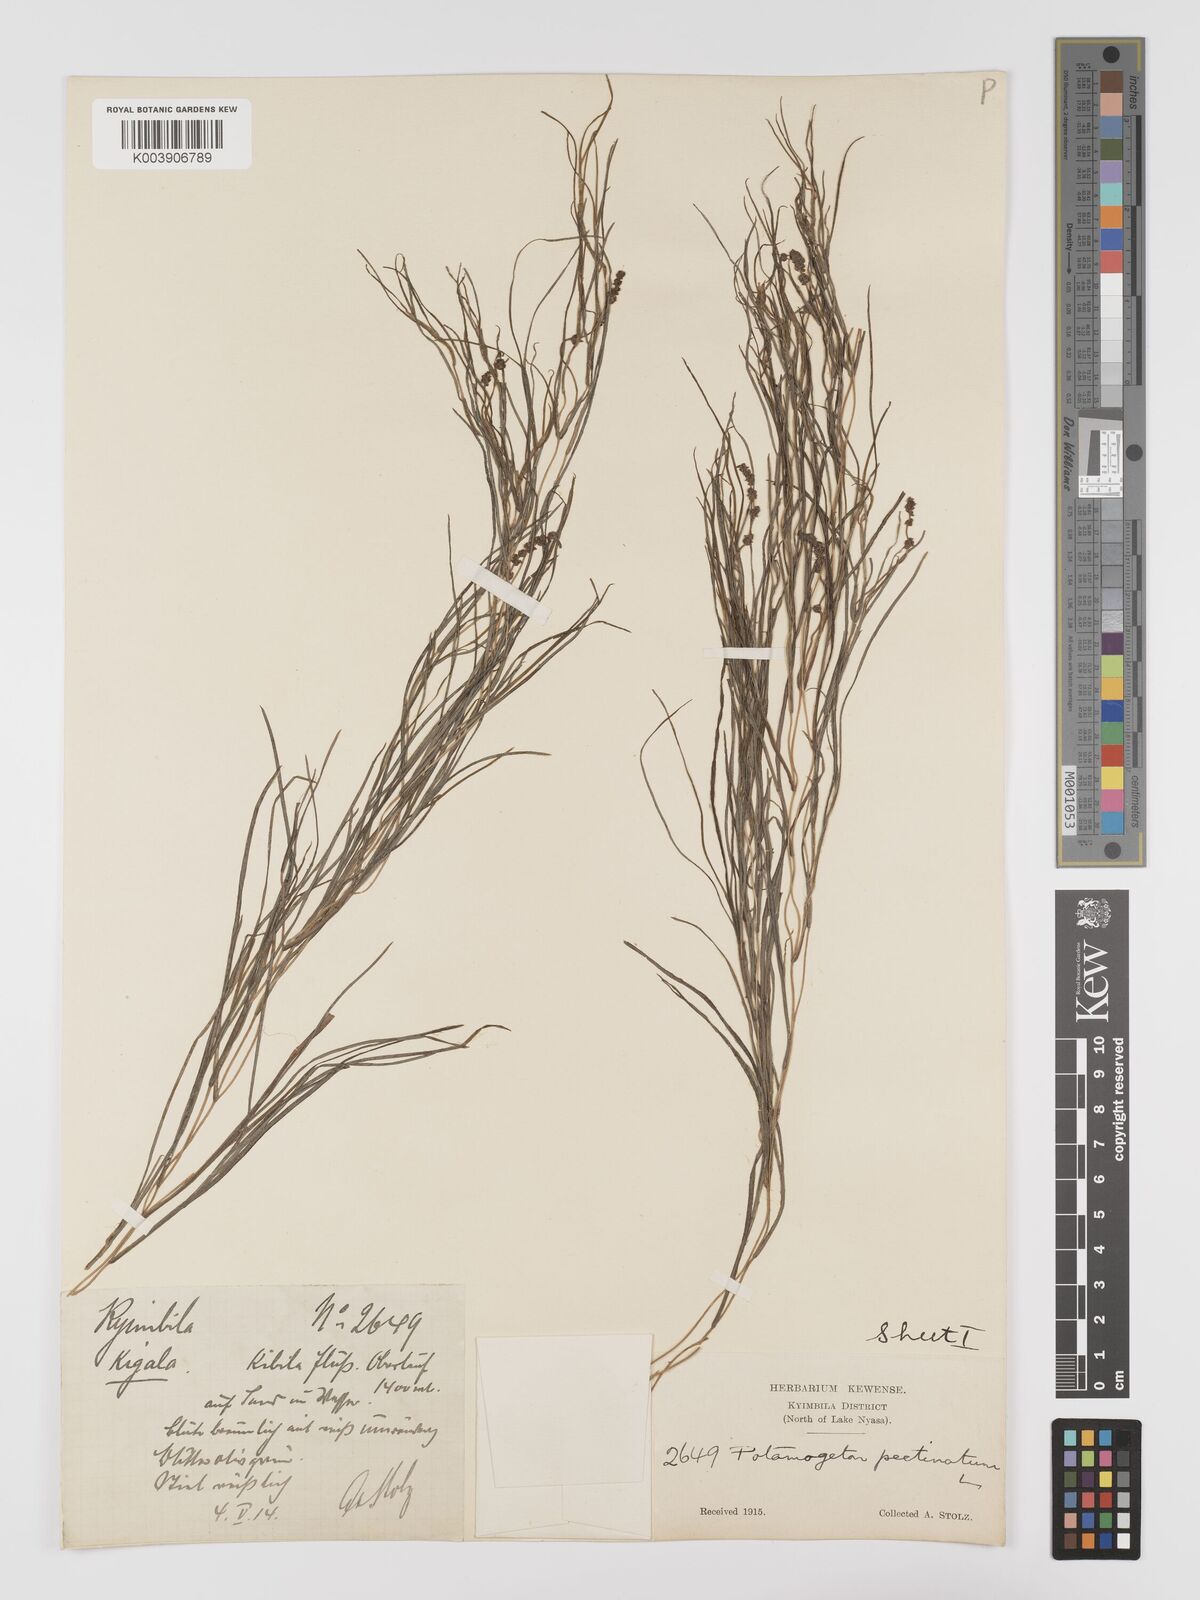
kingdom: Plantae
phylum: Tracheophyta
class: Liliopsida
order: Alismatales
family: Potamogetonaceae
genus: Stuckenia
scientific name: Stuckenia pectinata
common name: Sago pondweed
